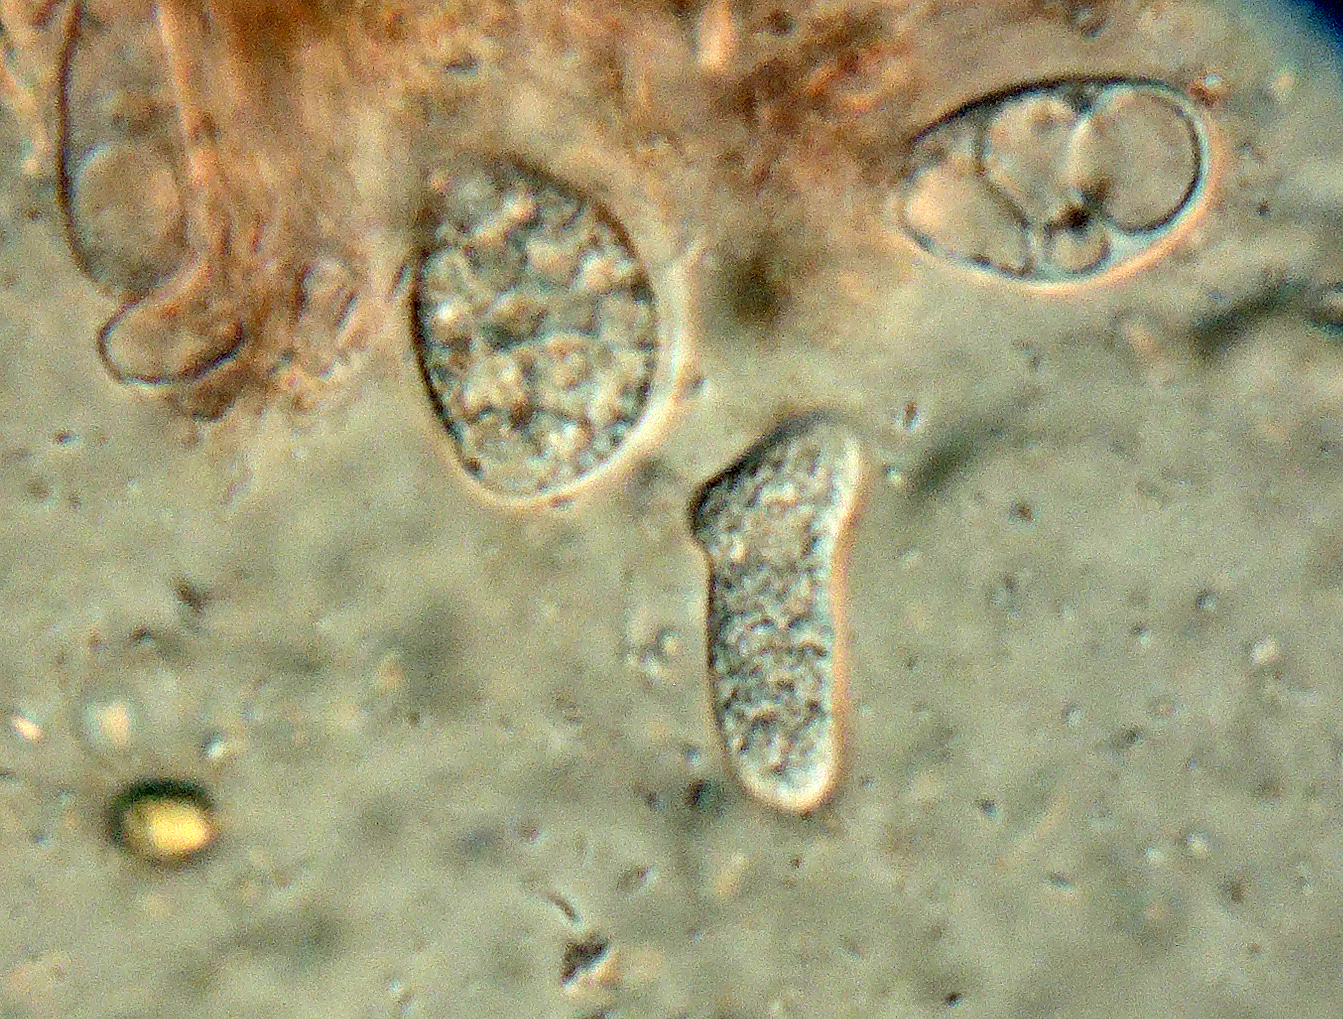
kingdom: Fungi
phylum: Basidiomycota
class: Agaricomycetes
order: Polyporales
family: Meruliaceae
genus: Mycoacia
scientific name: Mycoacia livida
